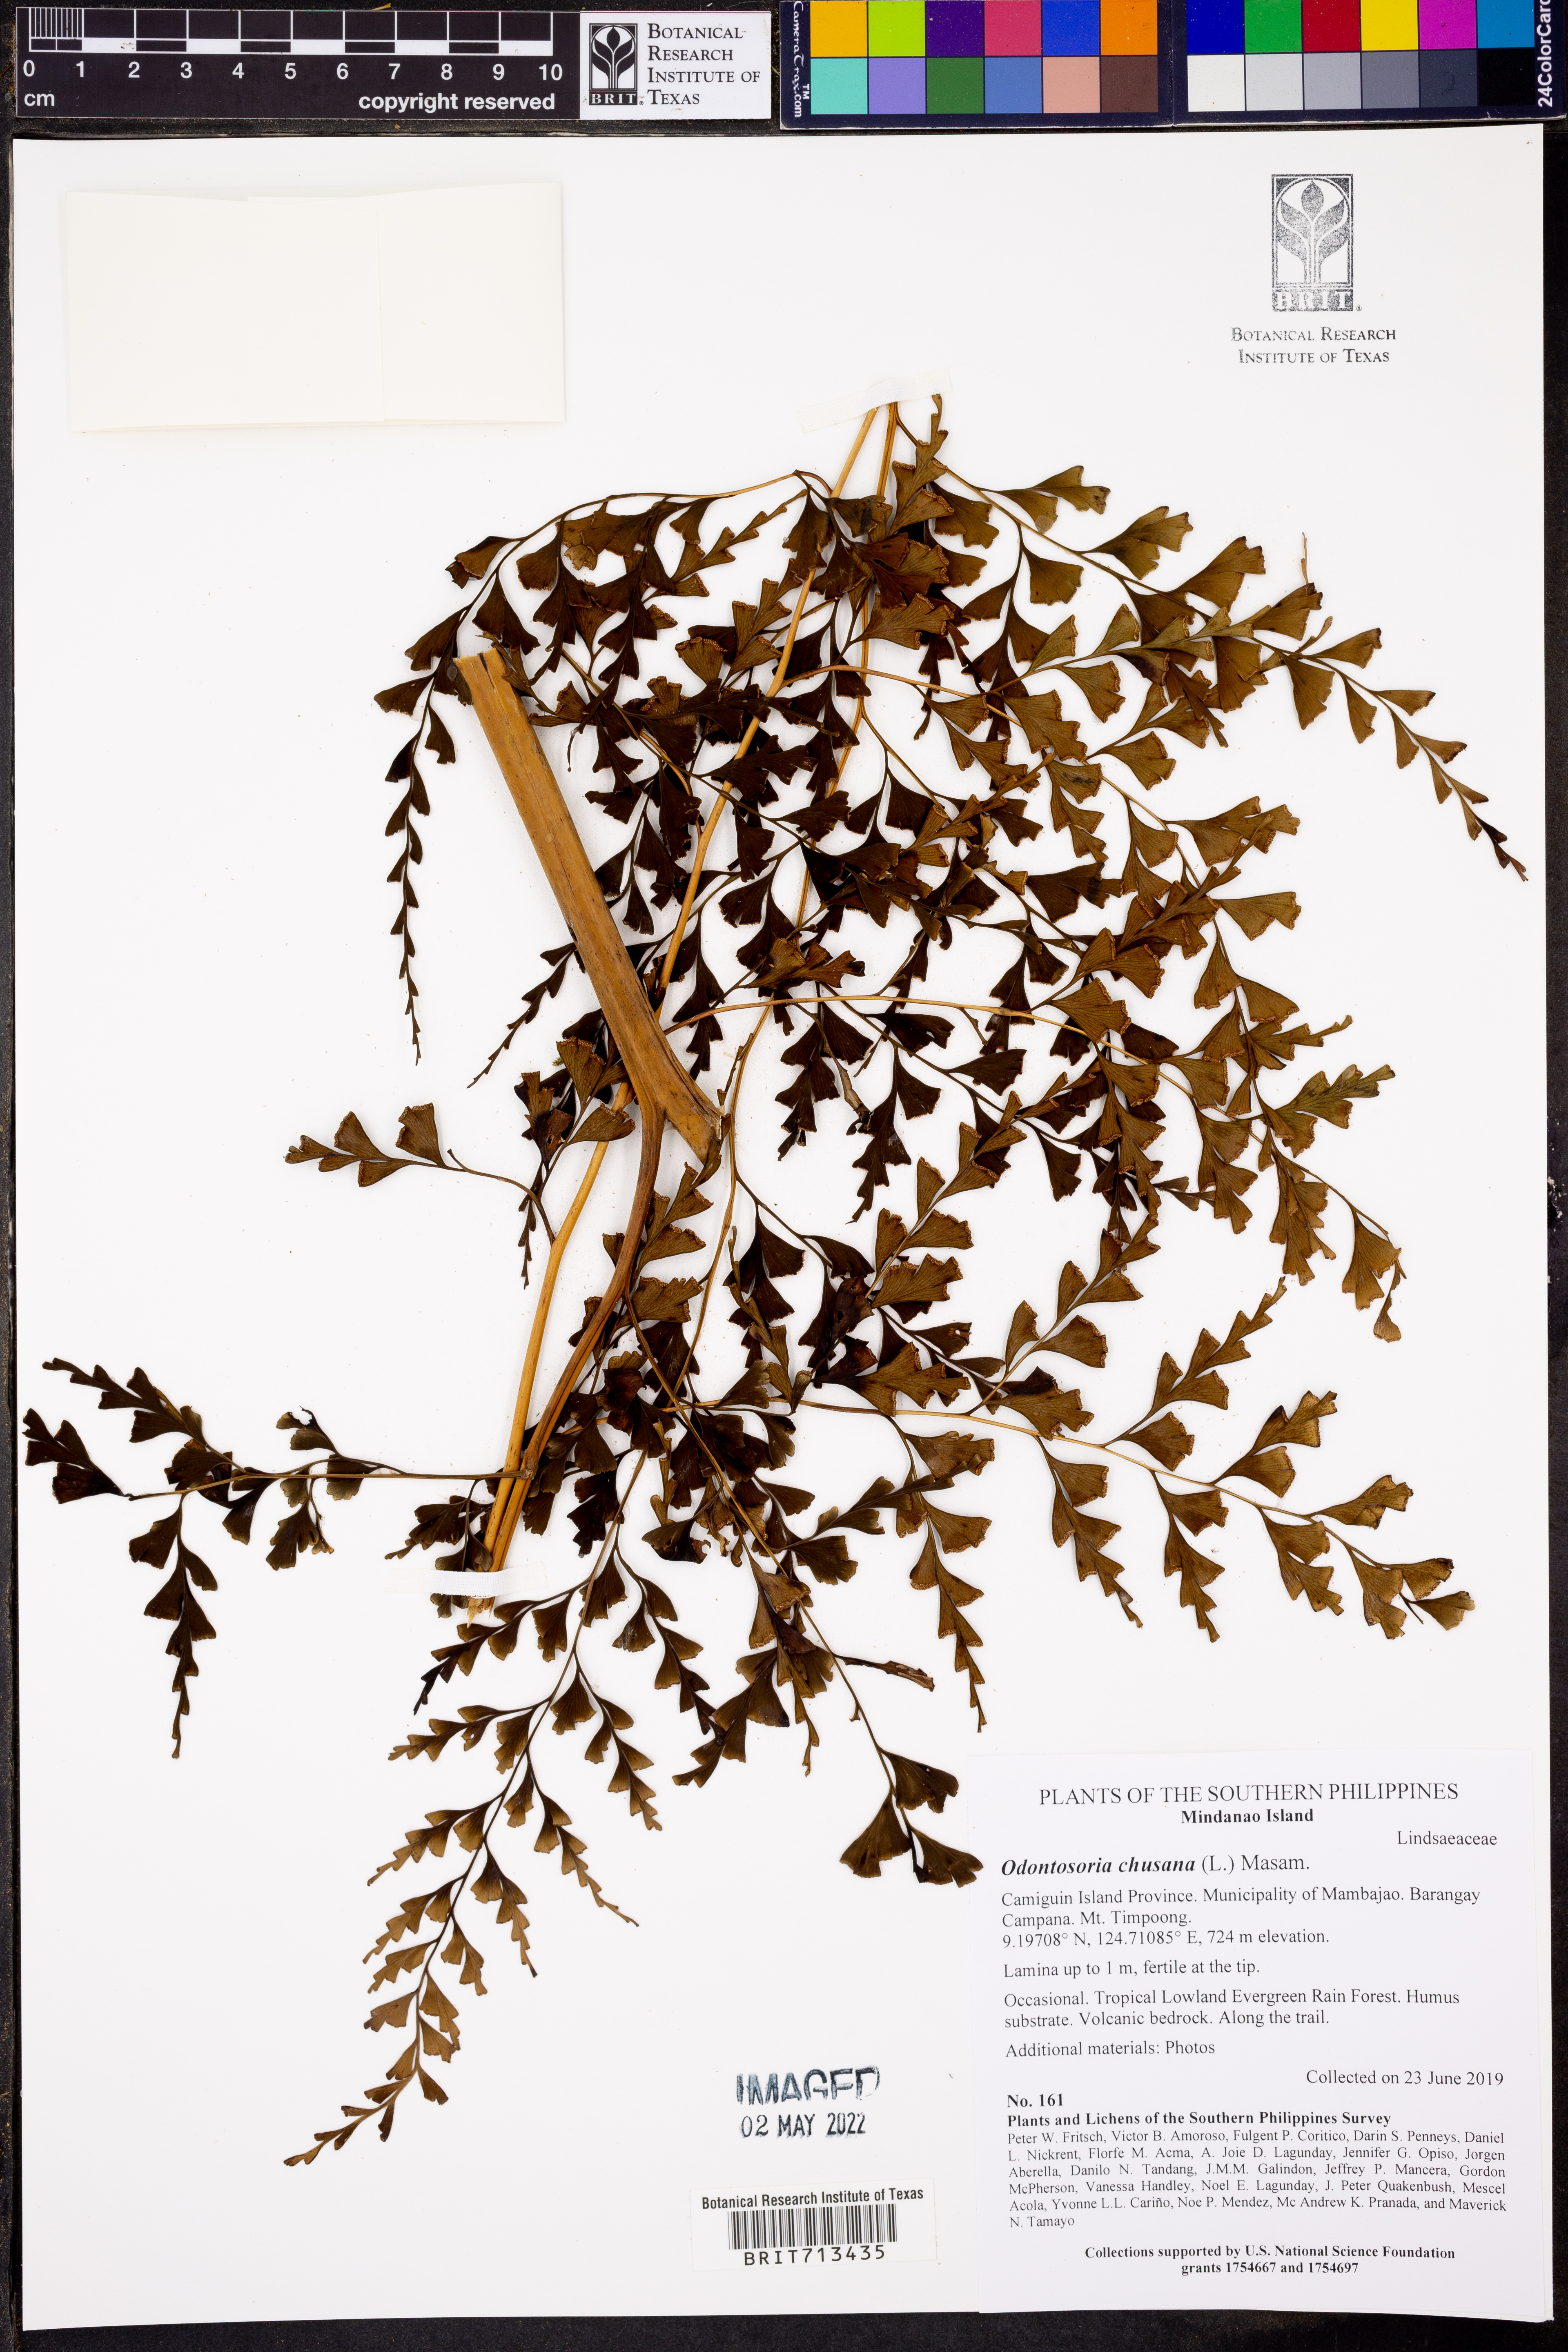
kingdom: Plantae
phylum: Tracheophyta
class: Polypodiopsida
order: Polypodiales
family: Lindsaeaceae
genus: Odontosoria
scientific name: Odontosoria chinensis
